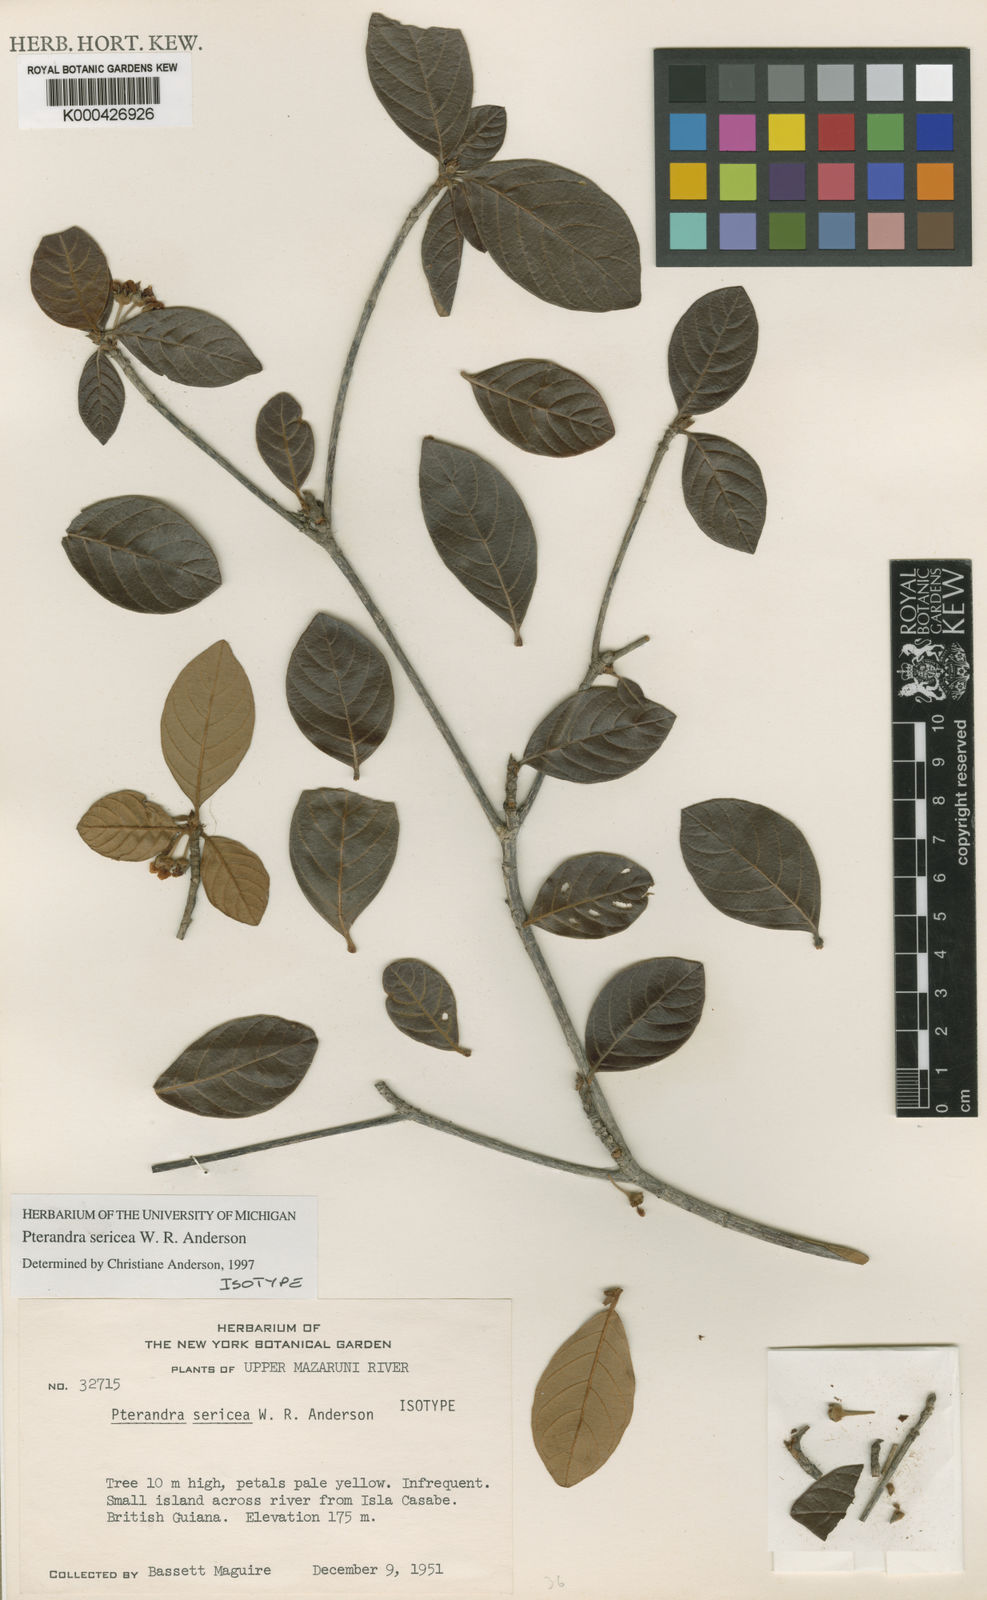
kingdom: Plantae
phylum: Tracheophyta
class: Magnoliopsida
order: Malpighiales
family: Malpighiaceae
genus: Pterandra
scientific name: Pterandra sericea
